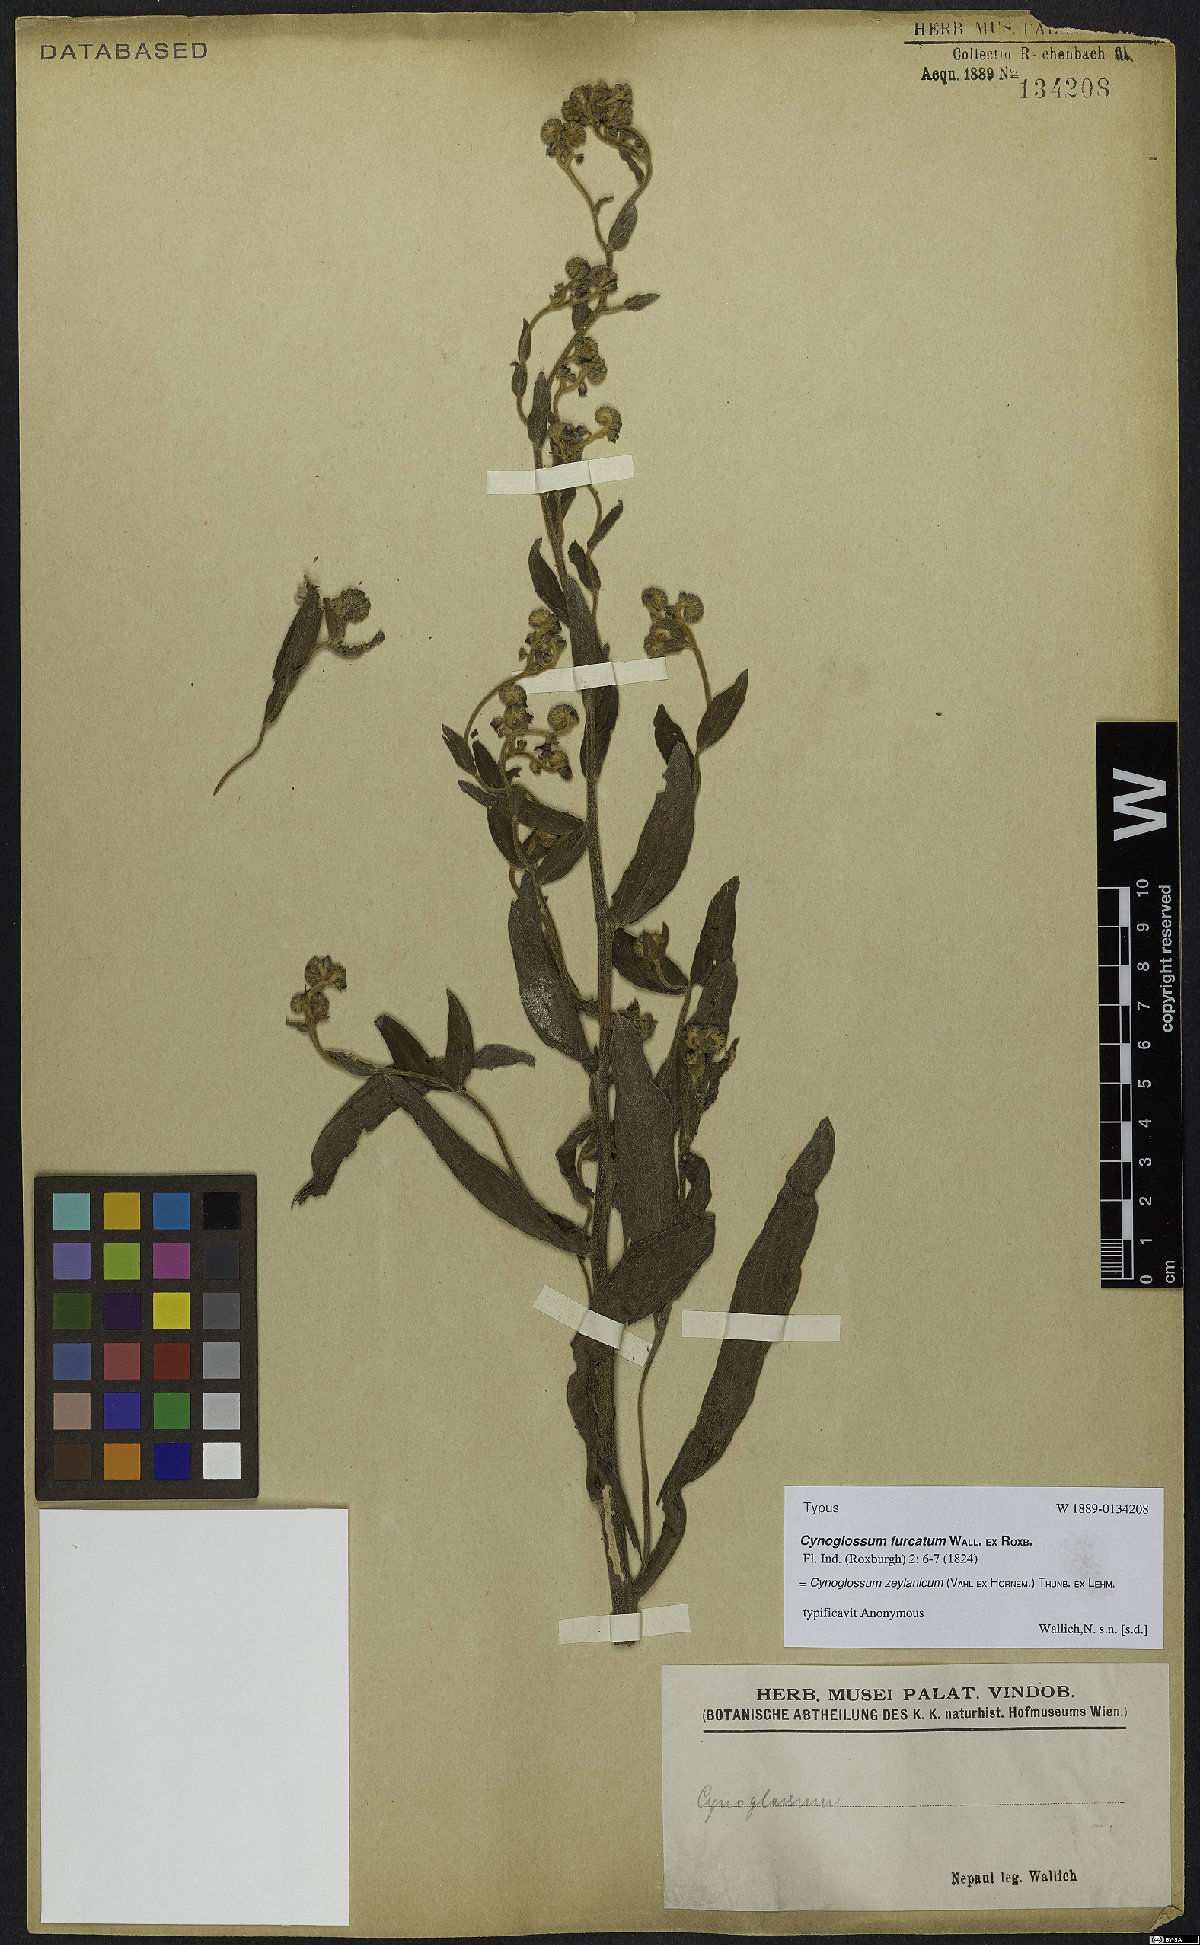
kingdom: Plantae
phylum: Tracheophyta
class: Magnoliopsida
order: Boraginales
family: Boraginaceae
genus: Cynoglossum
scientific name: Cynoglossum zeylanicum
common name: Ceylon hound's tongue
